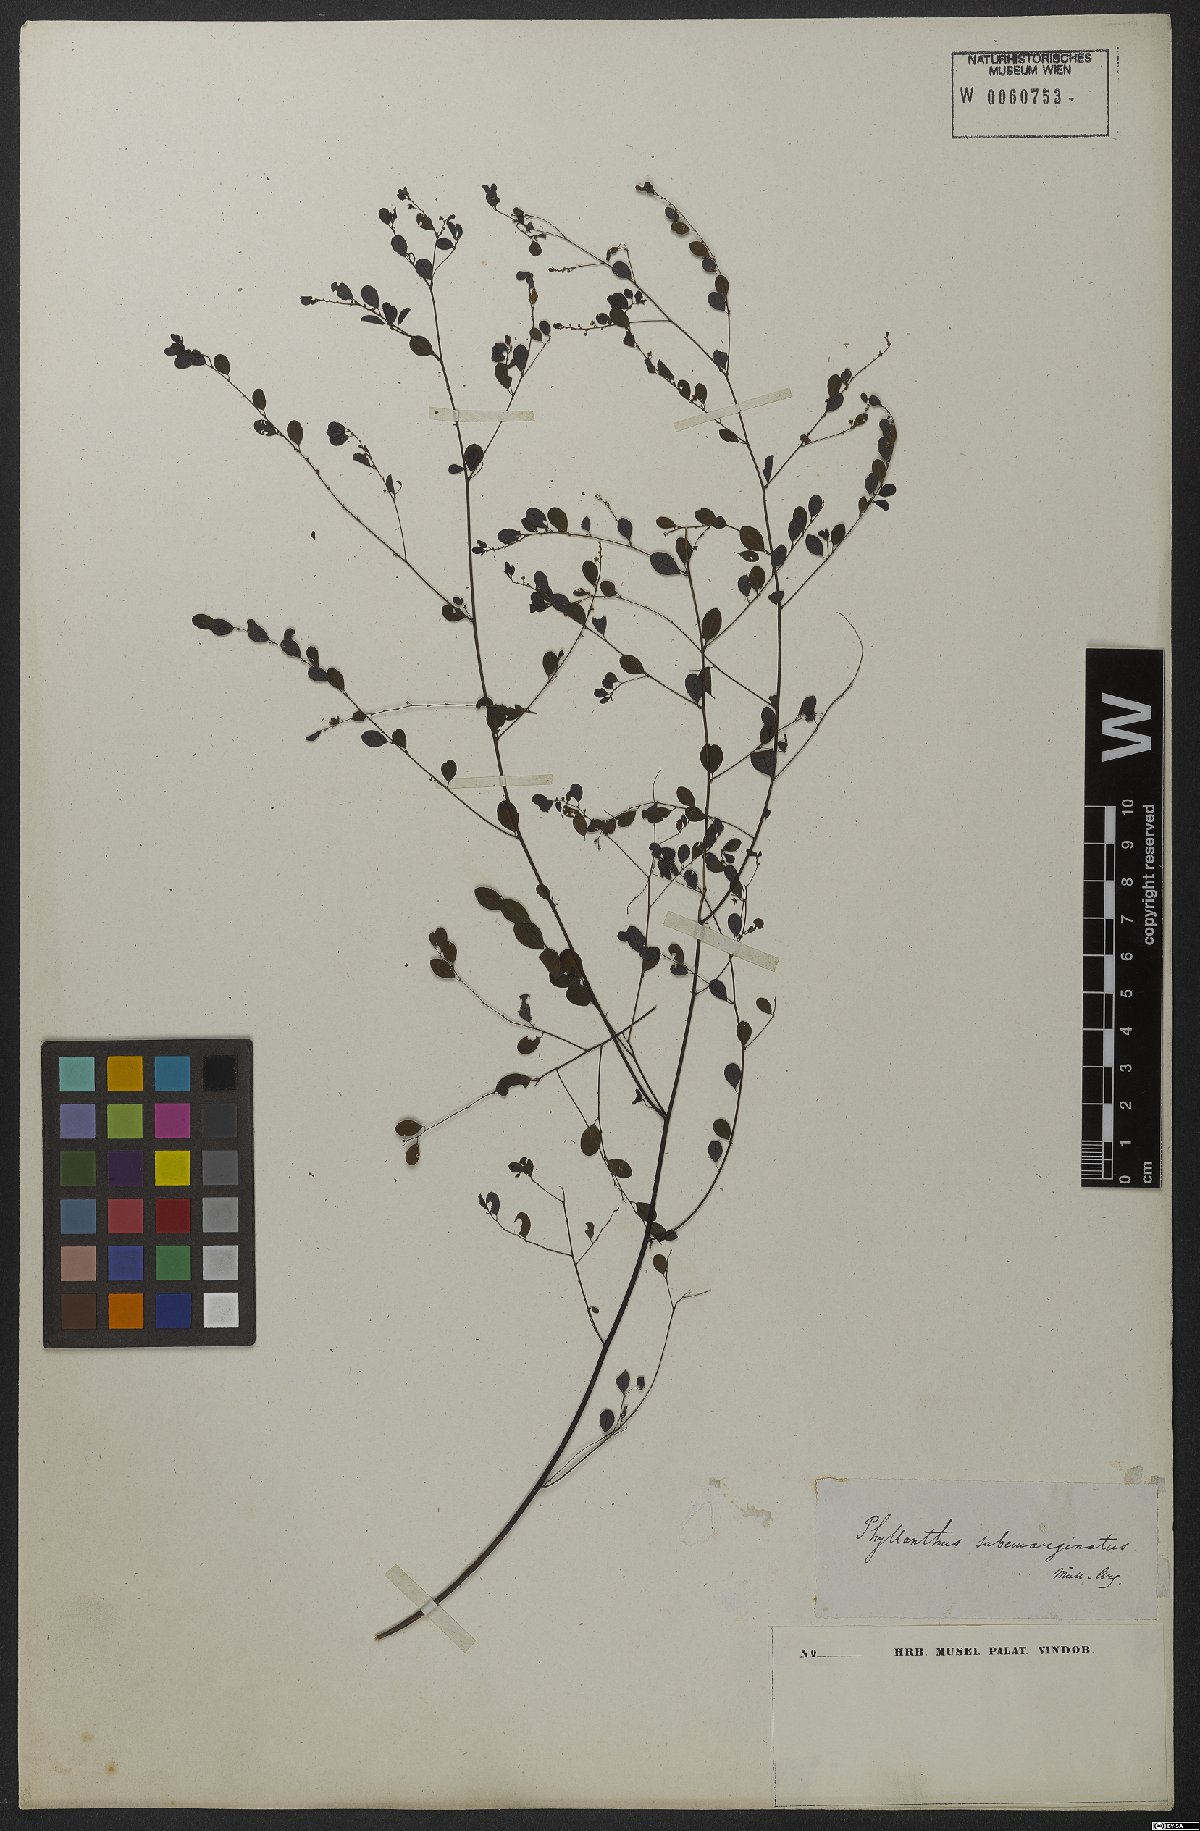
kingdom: Plantae
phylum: Tracheophyta
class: Magnoliopsida
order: Malpighiales
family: Phyllanthaceae
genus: Phyllanthus
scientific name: Phyllanthus subemarginatus
